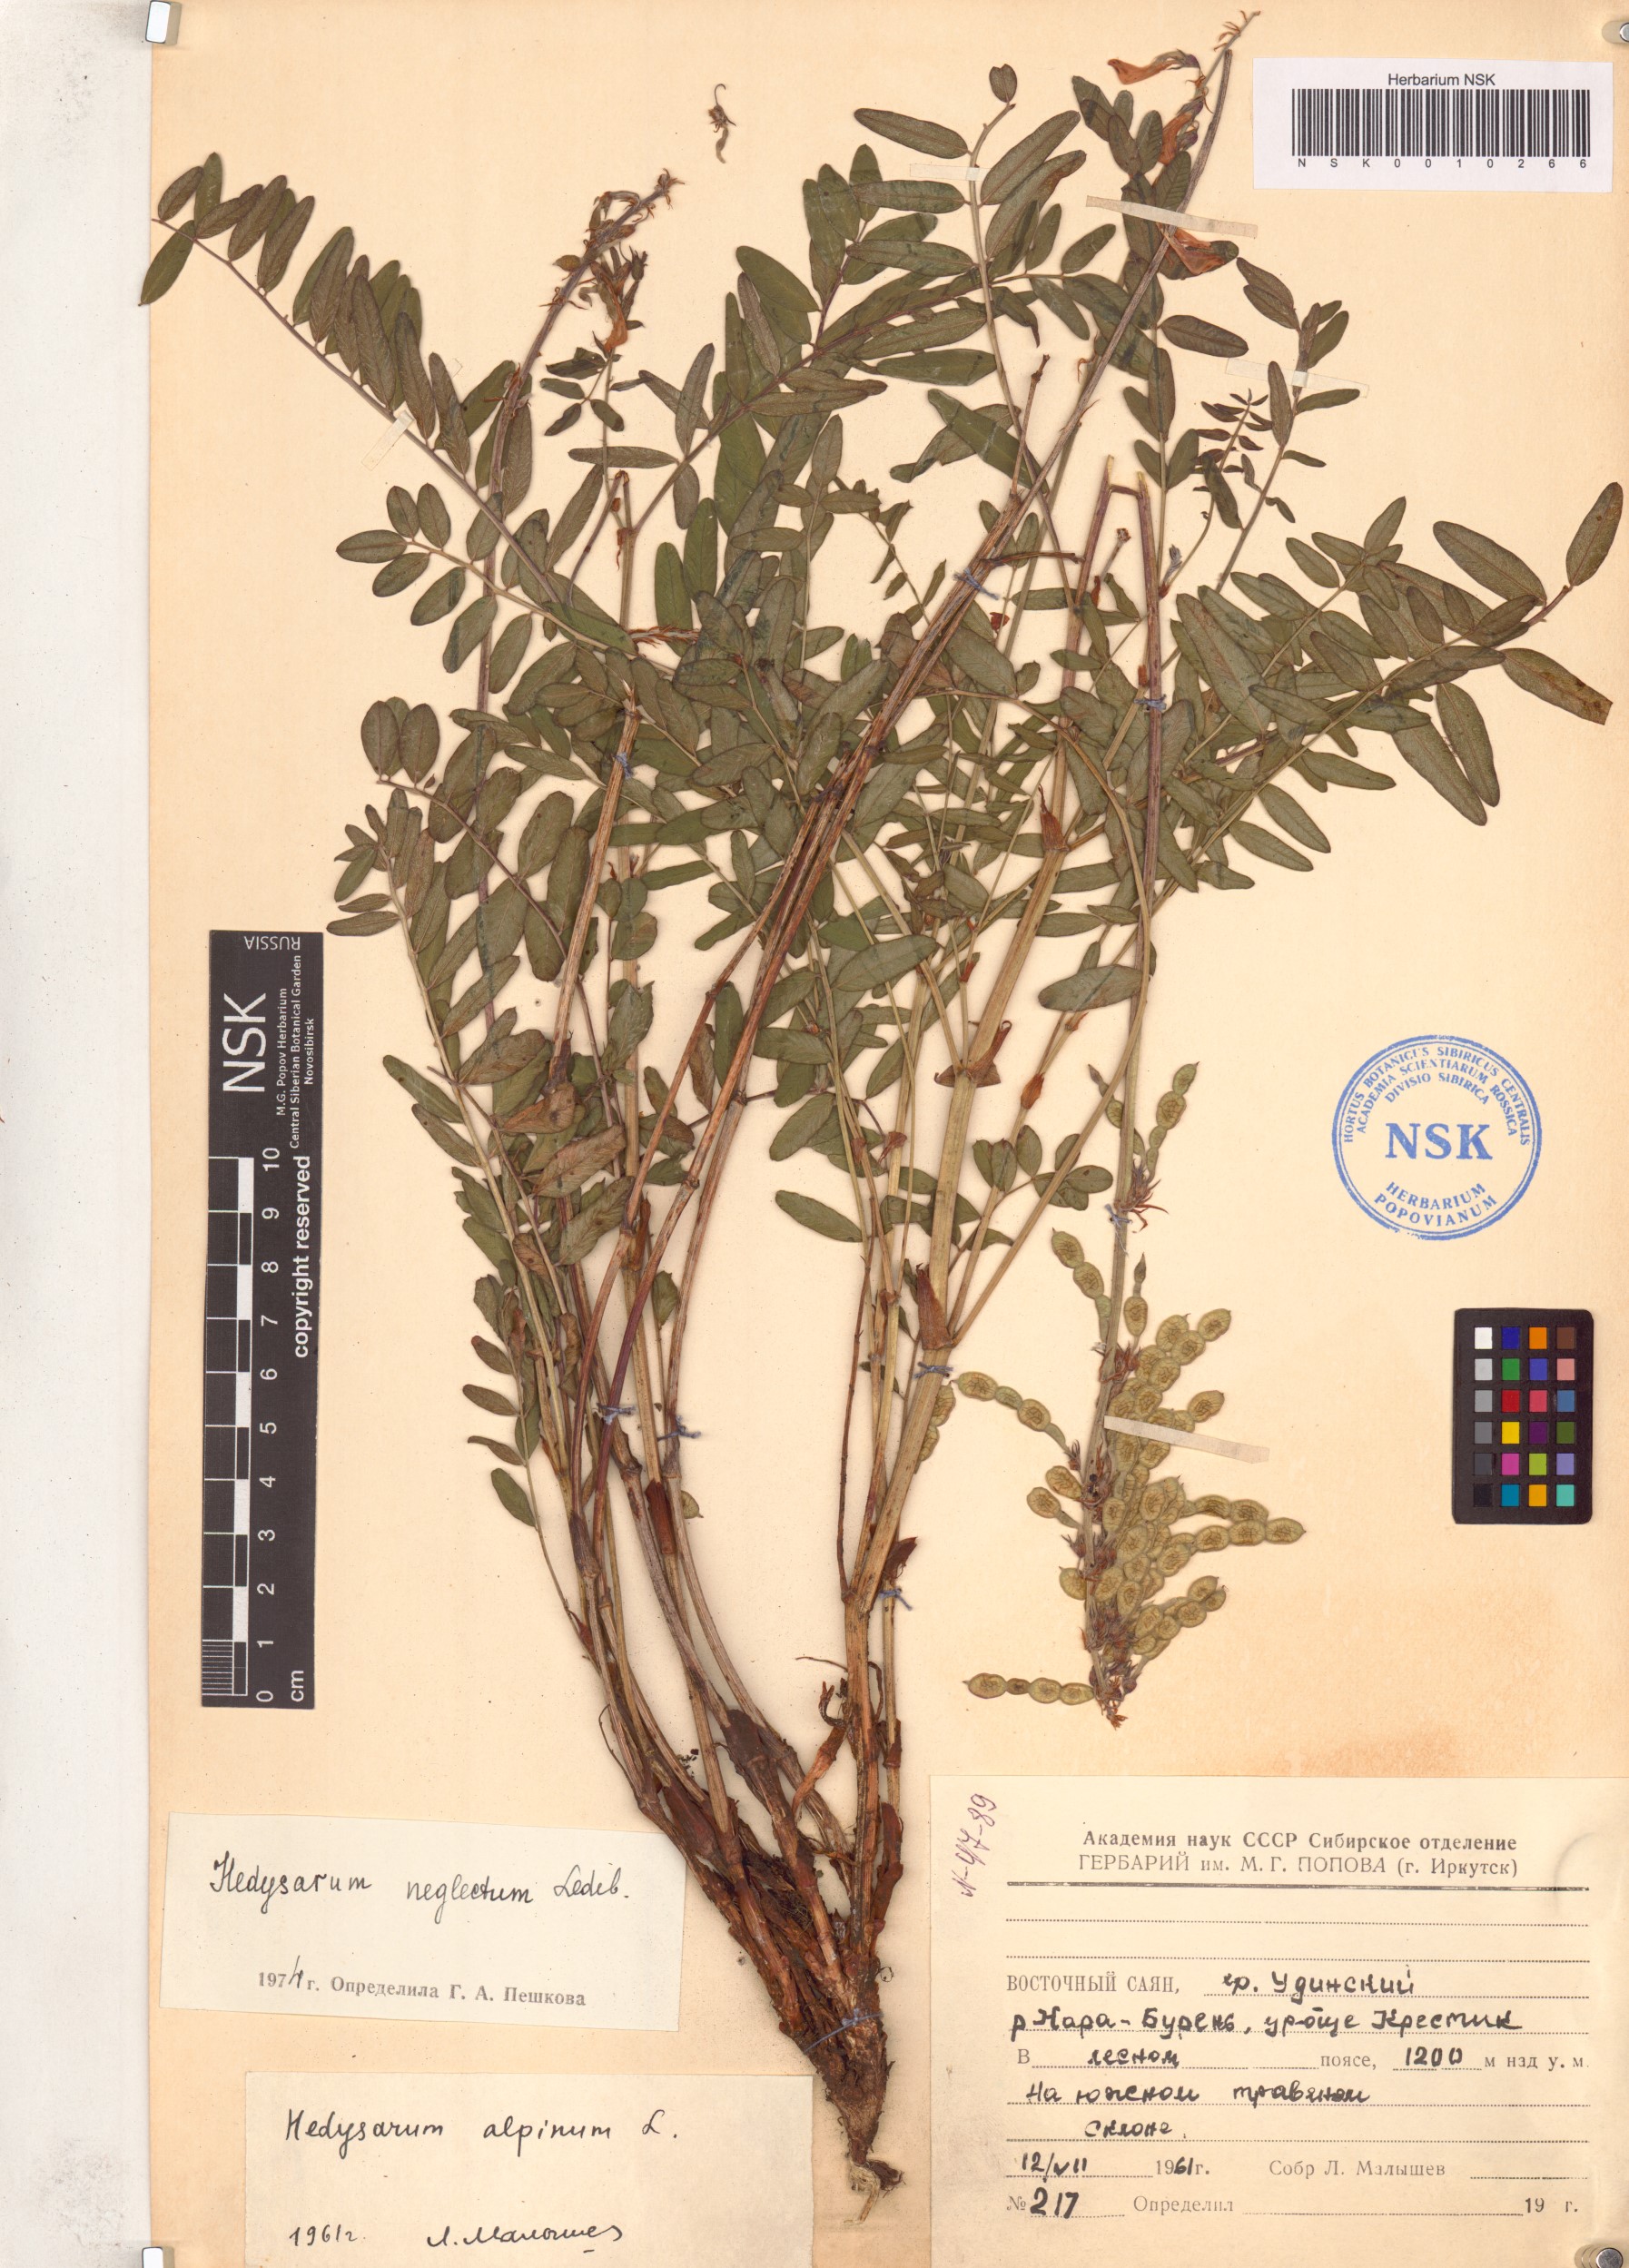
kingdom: Plantae
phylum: Tracheophyta
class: Magnoliopsida
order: Fabales
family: Fabaceae
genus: Hedysarum
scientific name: Hedysarum neglectum
